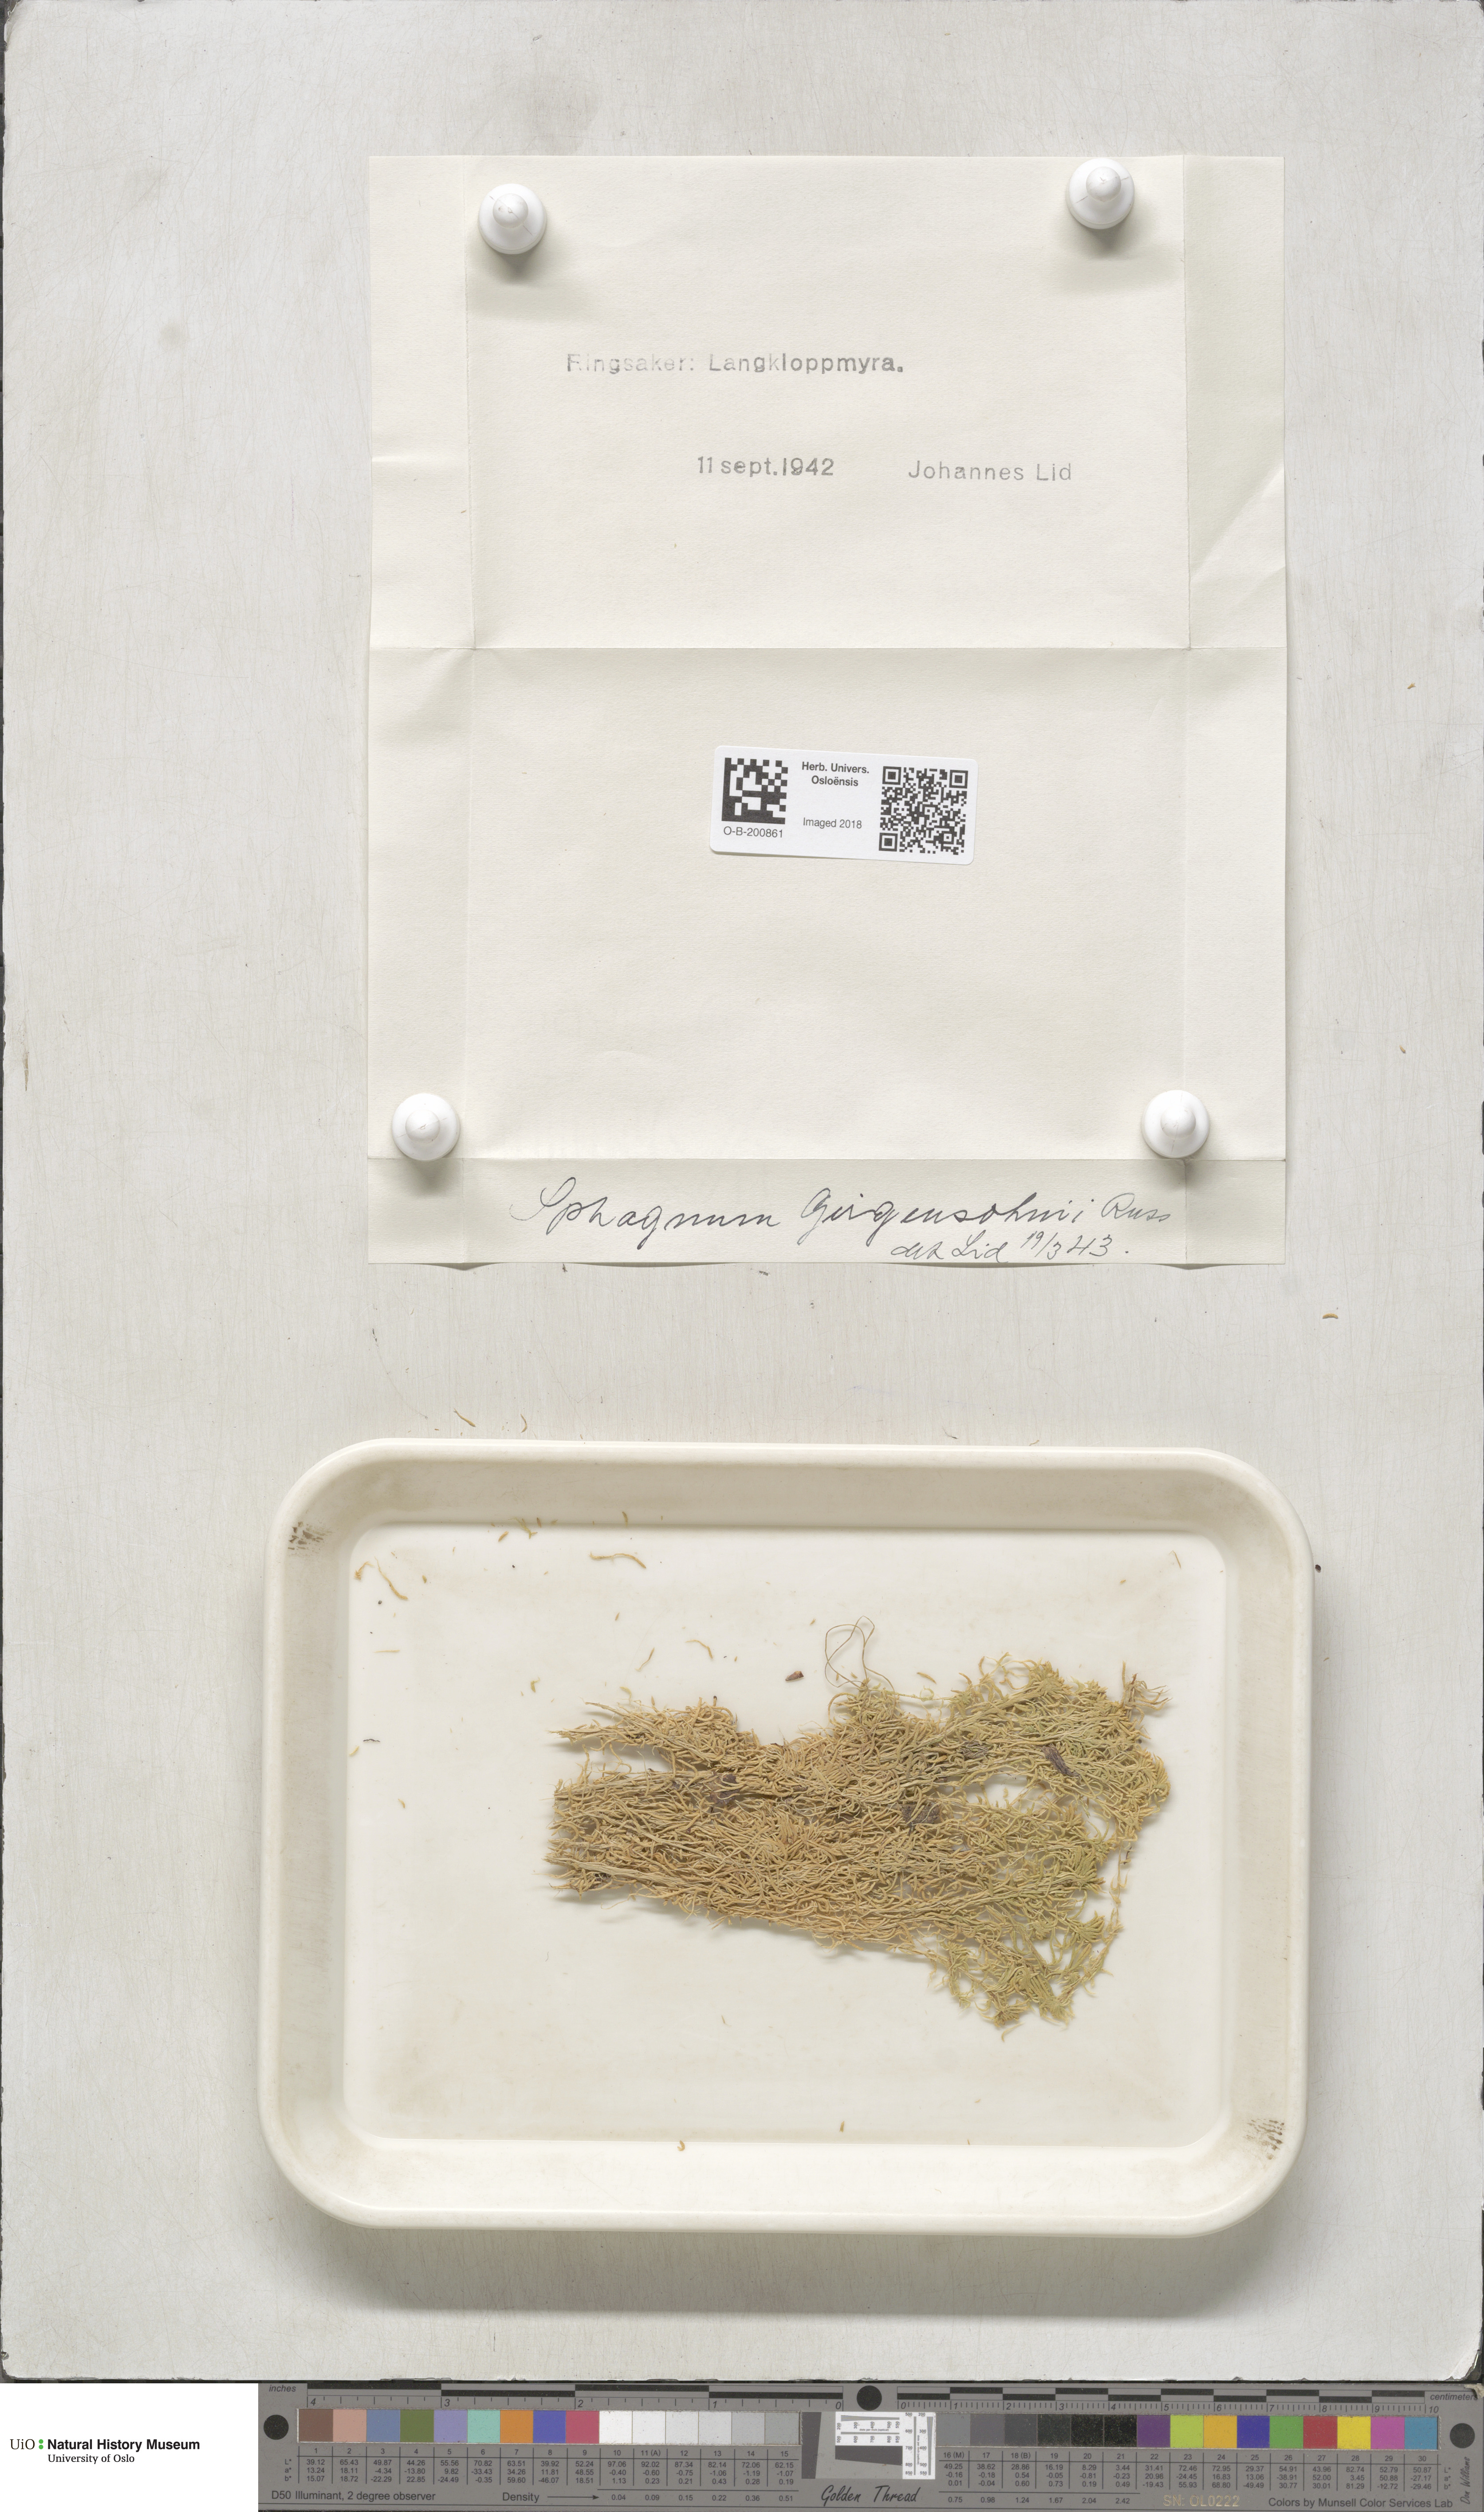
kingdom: Plantae
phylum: Bryophyta
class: Sphagnopsida
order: Sphagnales
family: Sphagnaceae
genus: Sphagnum
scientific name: Sphagnum girgensohnii
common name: Girgensohn's peat moss
